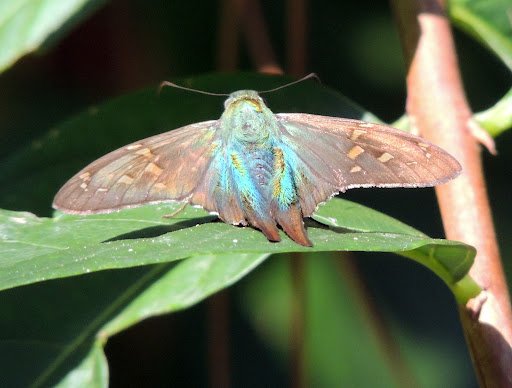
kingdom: Animalia
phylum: Arthropoda
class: Insecta
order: Lepidoptera
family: Hesperiidae
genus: Urbanus
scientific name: Urbanus proteus
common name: Long-tailed Skipper
